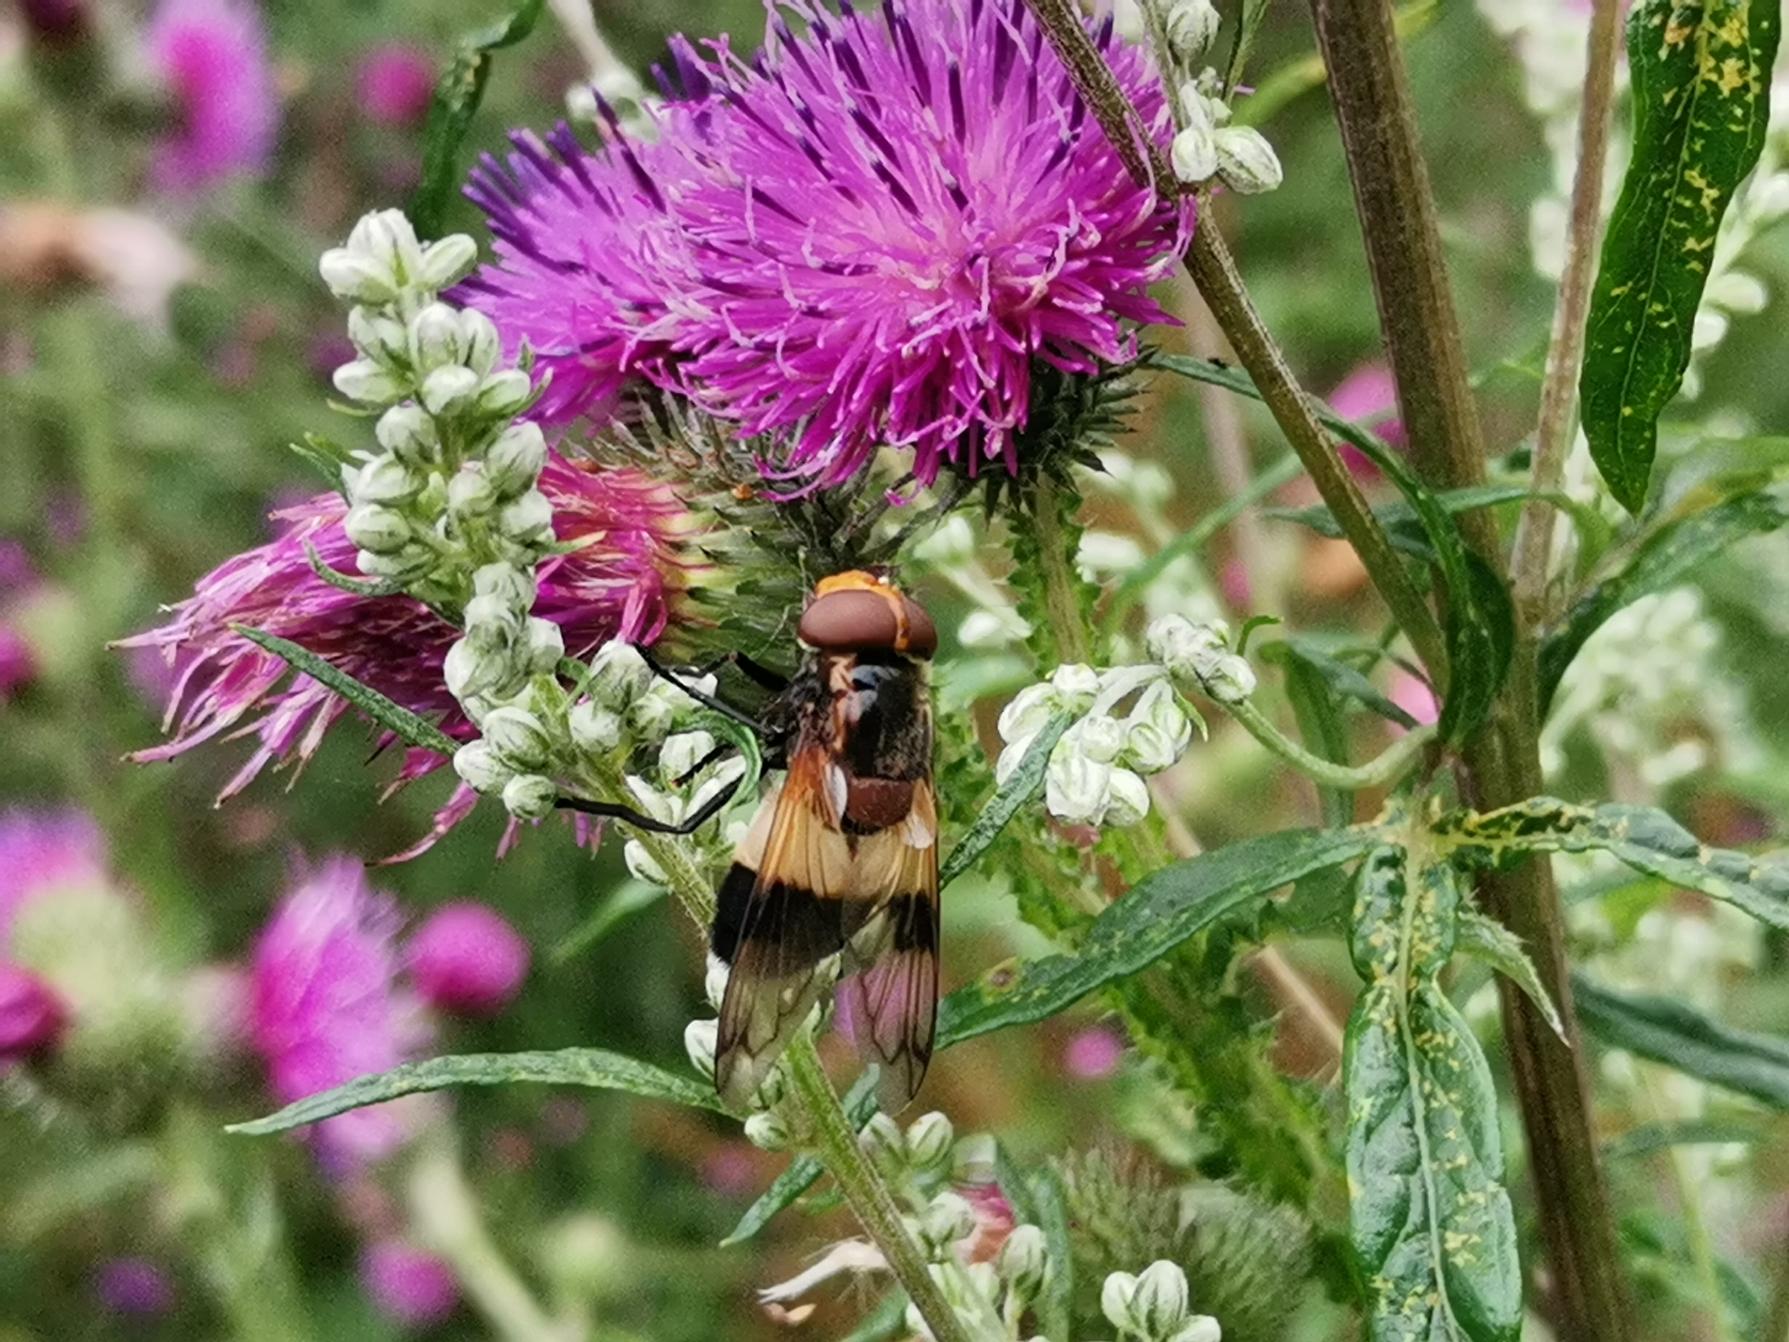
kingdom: Animalia
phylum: Arthropoda
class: Insecta
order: Diptera
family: Syrphidae
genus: Volucella
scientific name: Volucella pellucens
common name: Hvidbåndet humlesvirreflue
